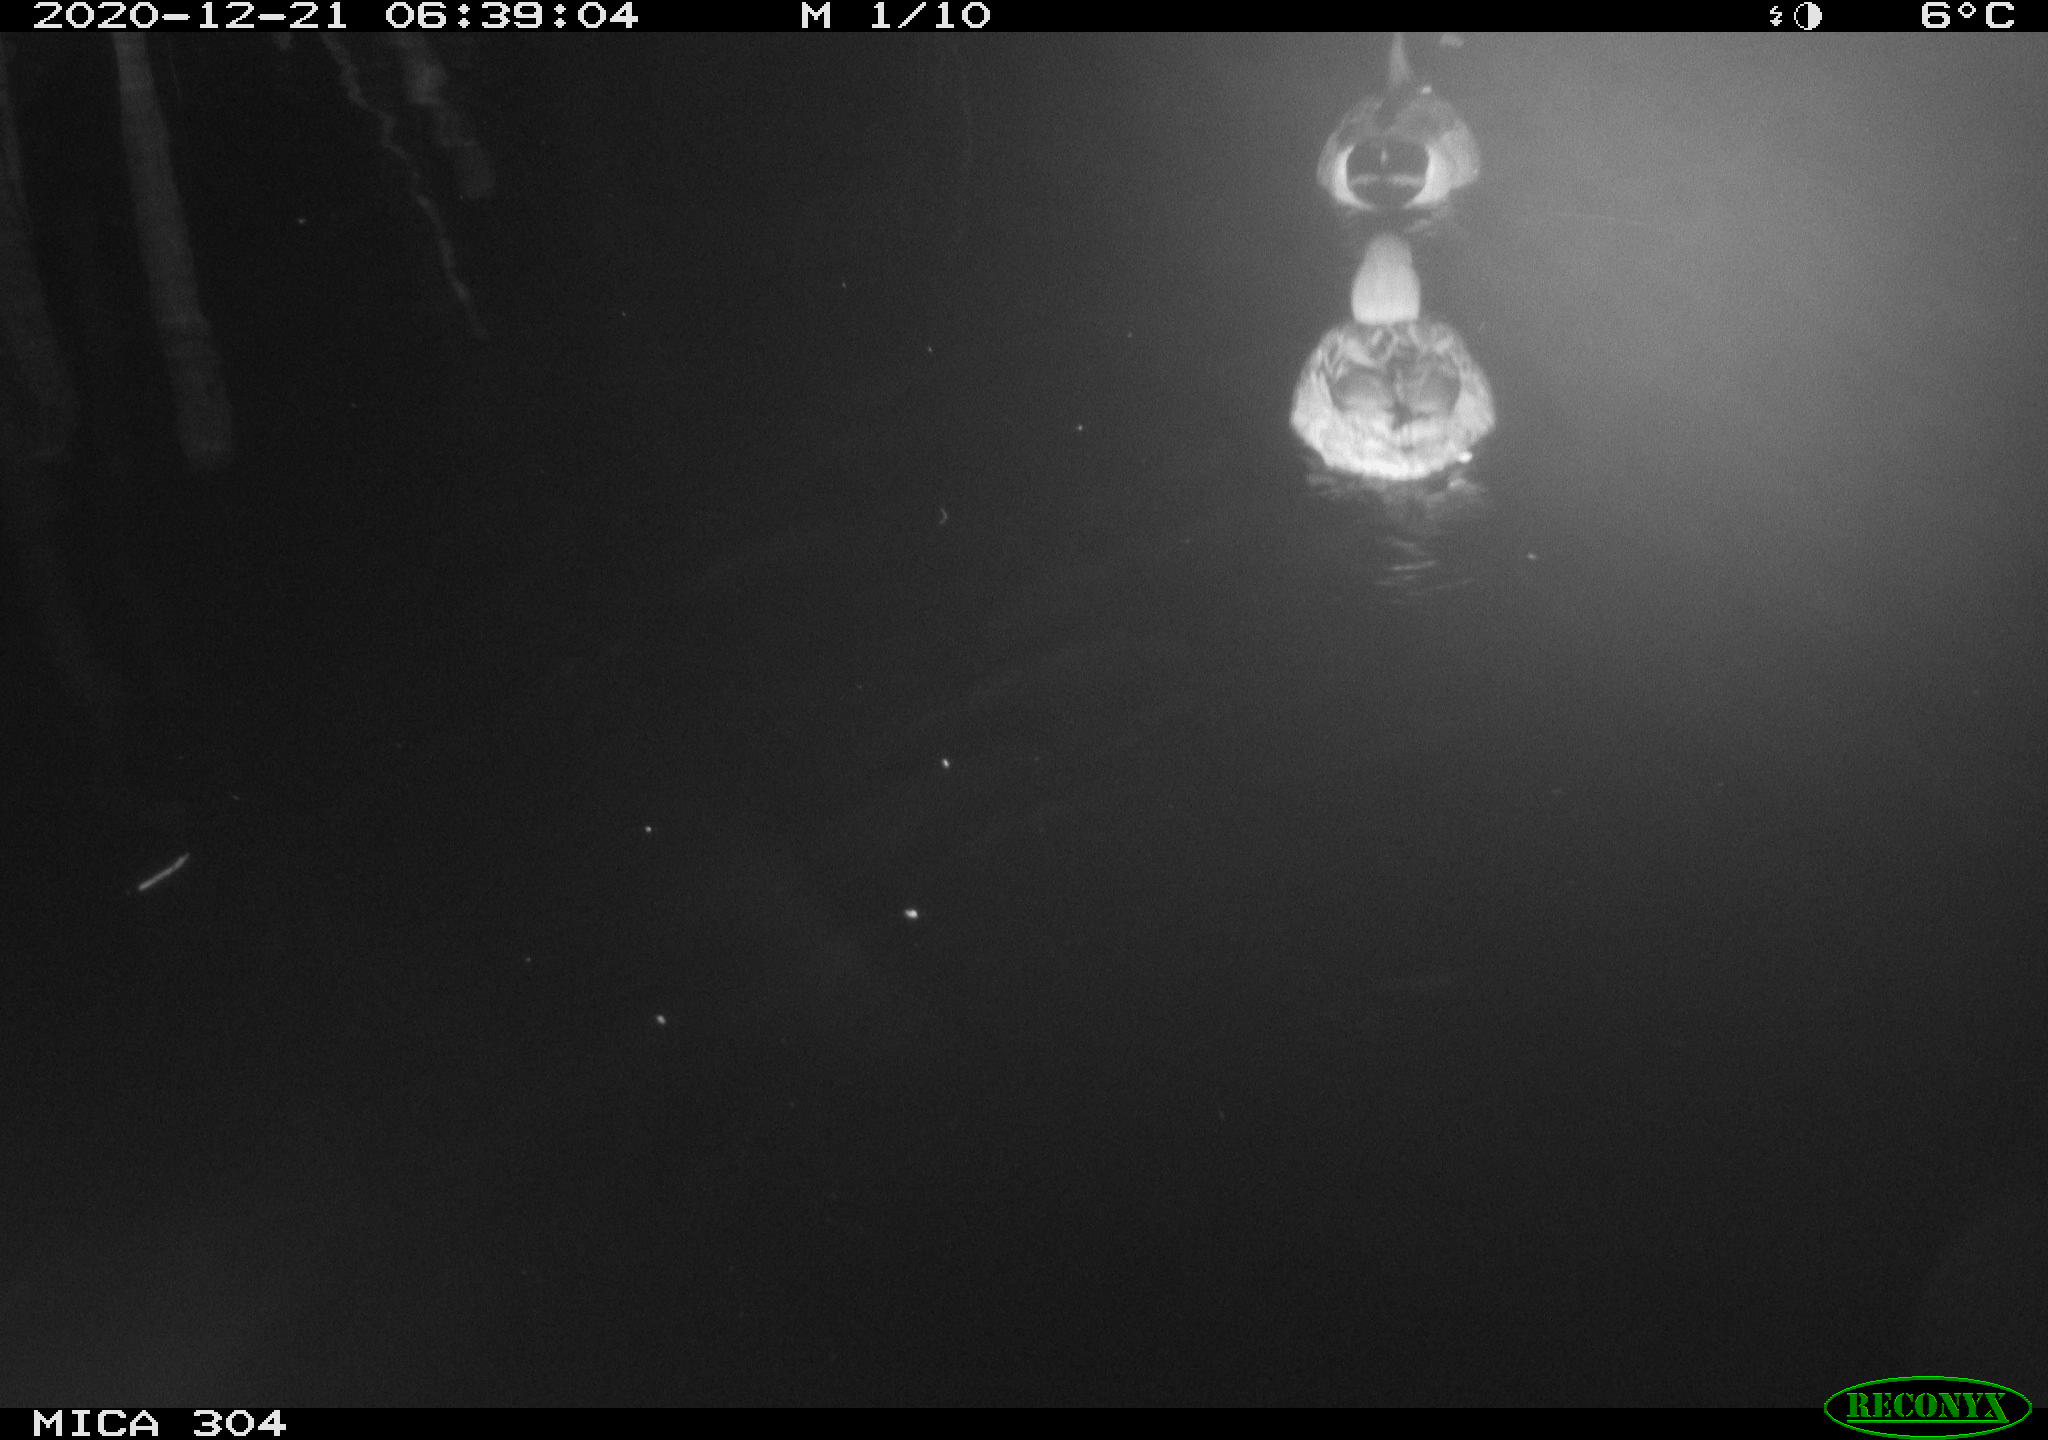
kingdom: Animalia
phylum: Chordata
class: Aves
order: Anseriformes
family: Anatidae
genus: Anas
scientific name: Anas platyrhynchos
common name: Mallard
